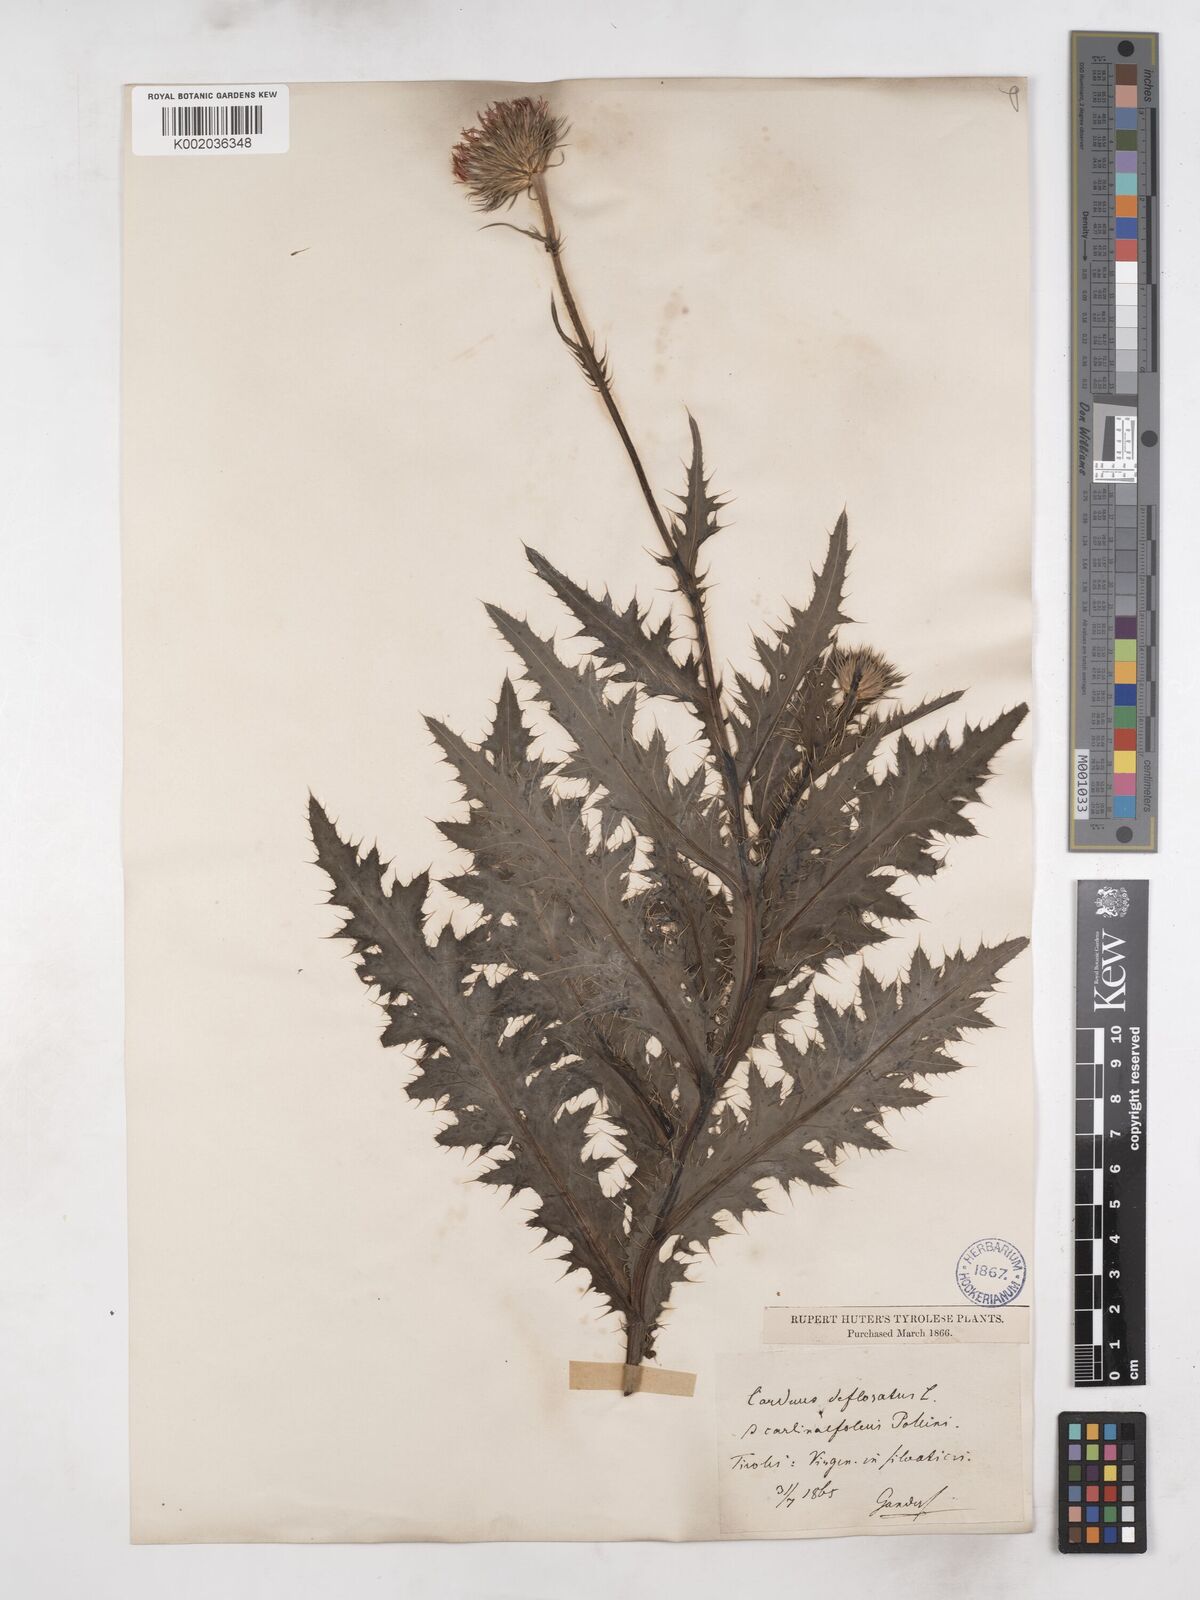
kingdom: Plantae
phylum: Tracheophyta
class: Magnoliopsida
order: Asterales
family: Asteraceae
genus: Carduus
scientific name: Carduus defloratus
